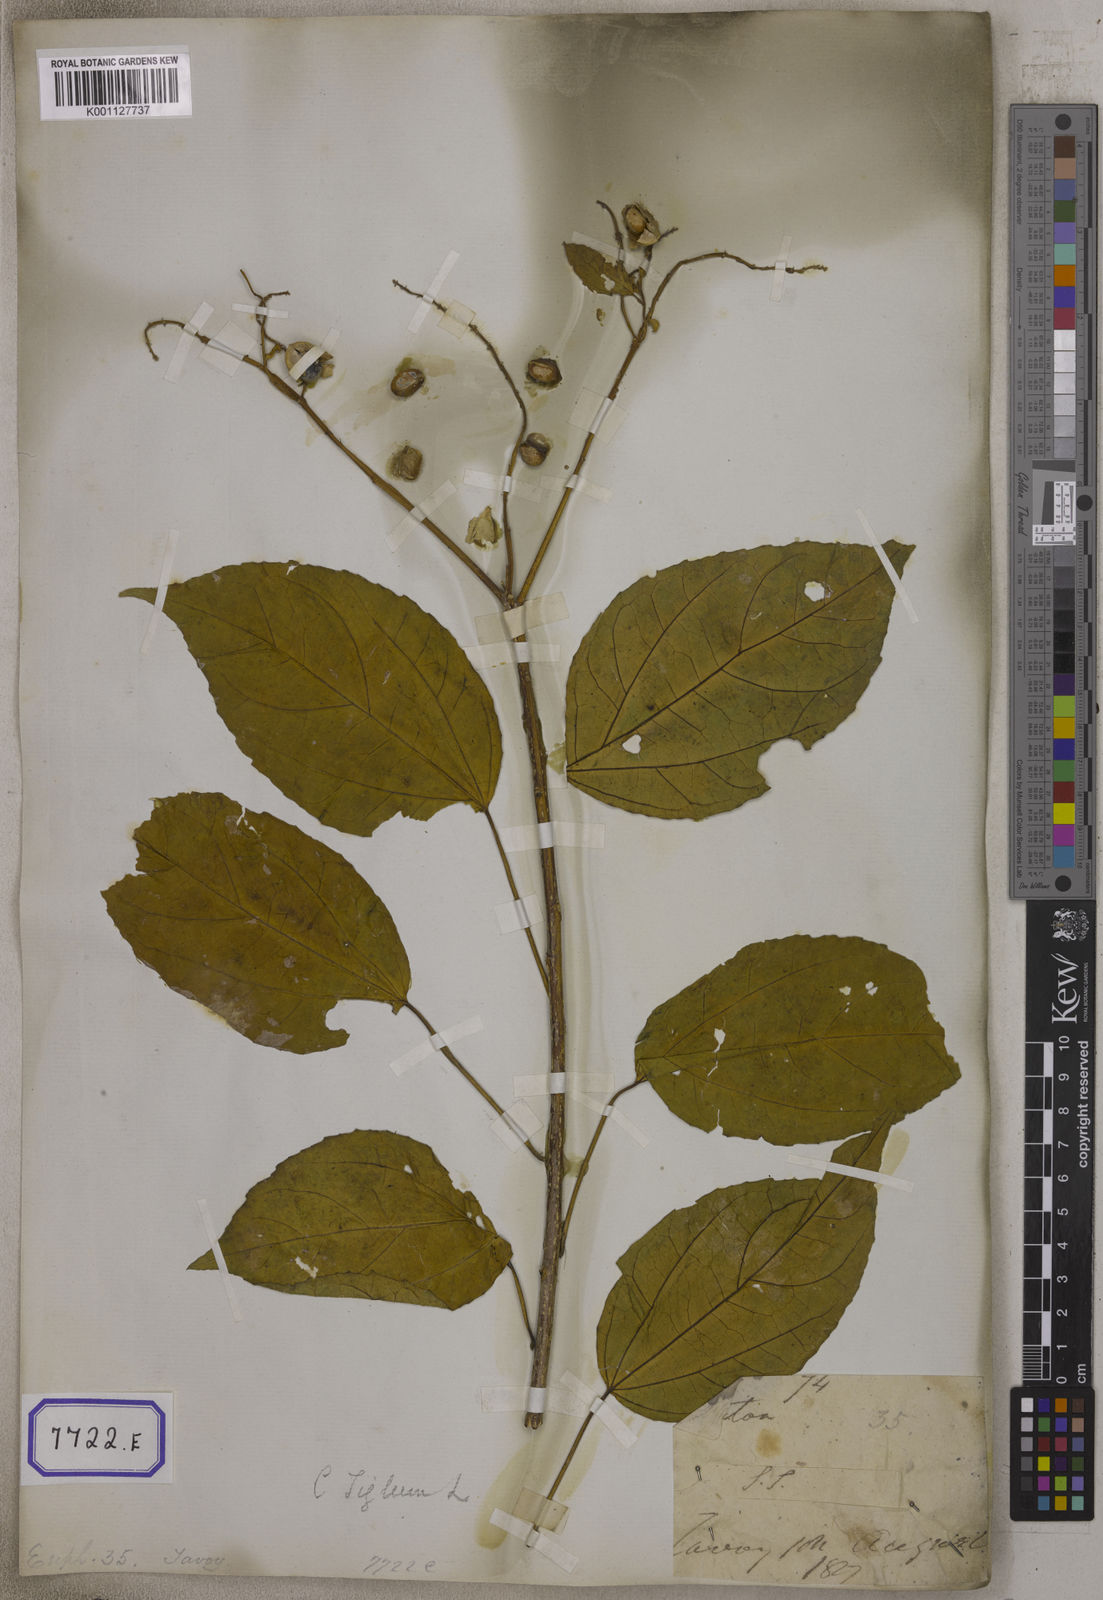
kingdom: Plantae
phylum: Tracheophyta
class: Magnoliopsida
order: Malpighiales
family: Euphorbiaceae
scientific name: Euphorbiaceae
